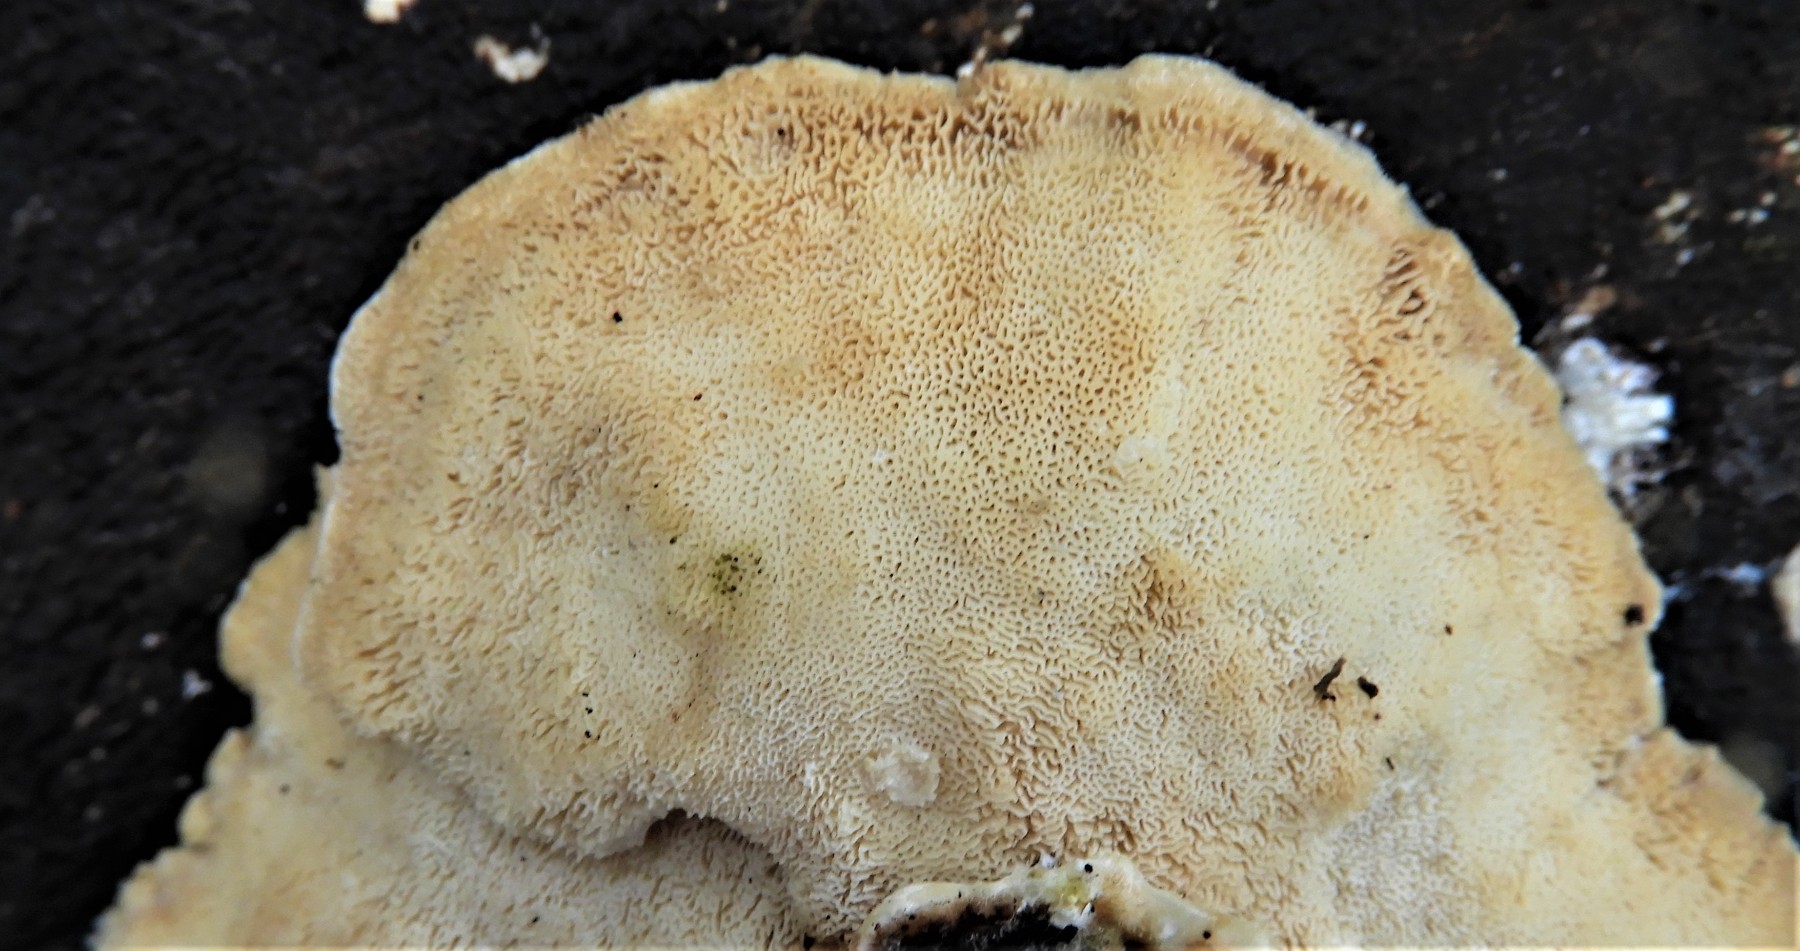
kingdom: Fungi
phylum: Basidiomycota
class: Agaricomycetes
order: Polyporales
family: Polyporaceae
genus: Trametes
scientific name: Trametes versicolor
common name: broget læderporesvamp
